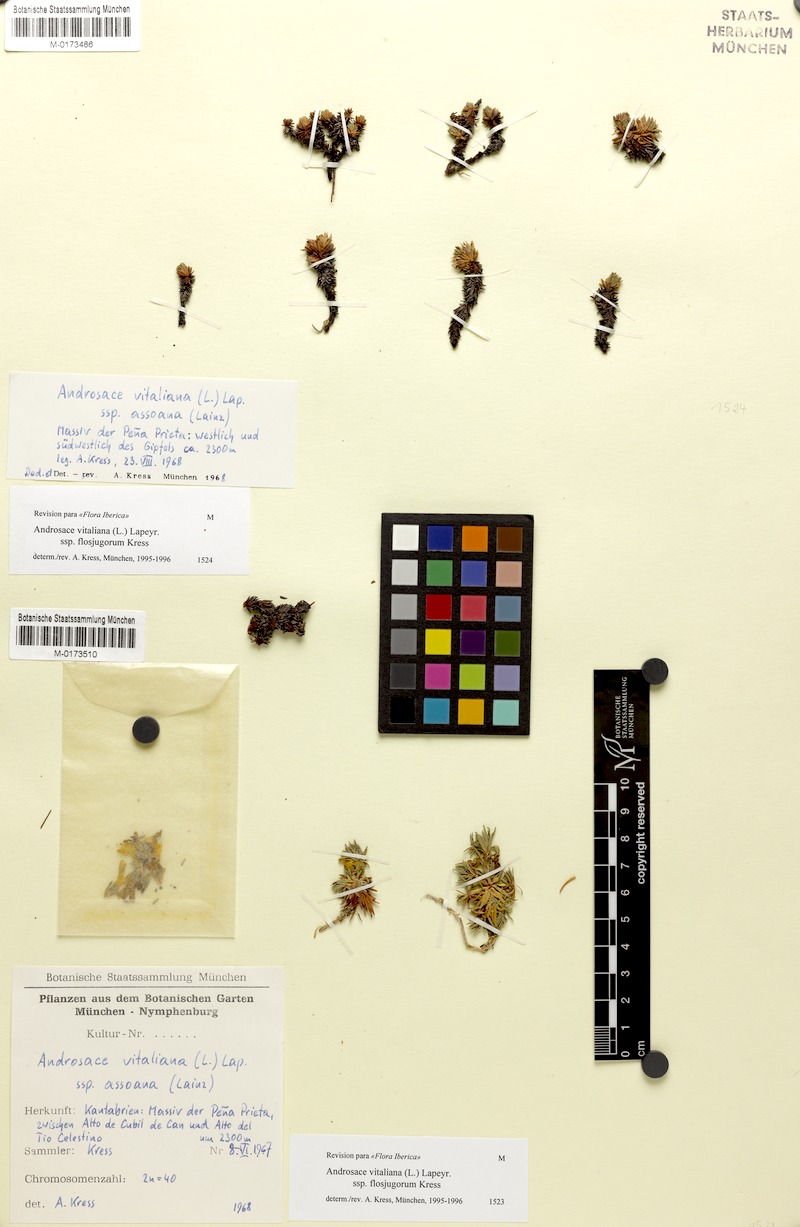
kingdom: Plantae
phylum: Tracheophyta
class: Magnoliopsida
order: Ericales
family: Primulaceae
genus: Androsace
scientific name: Androsace vitaliana
